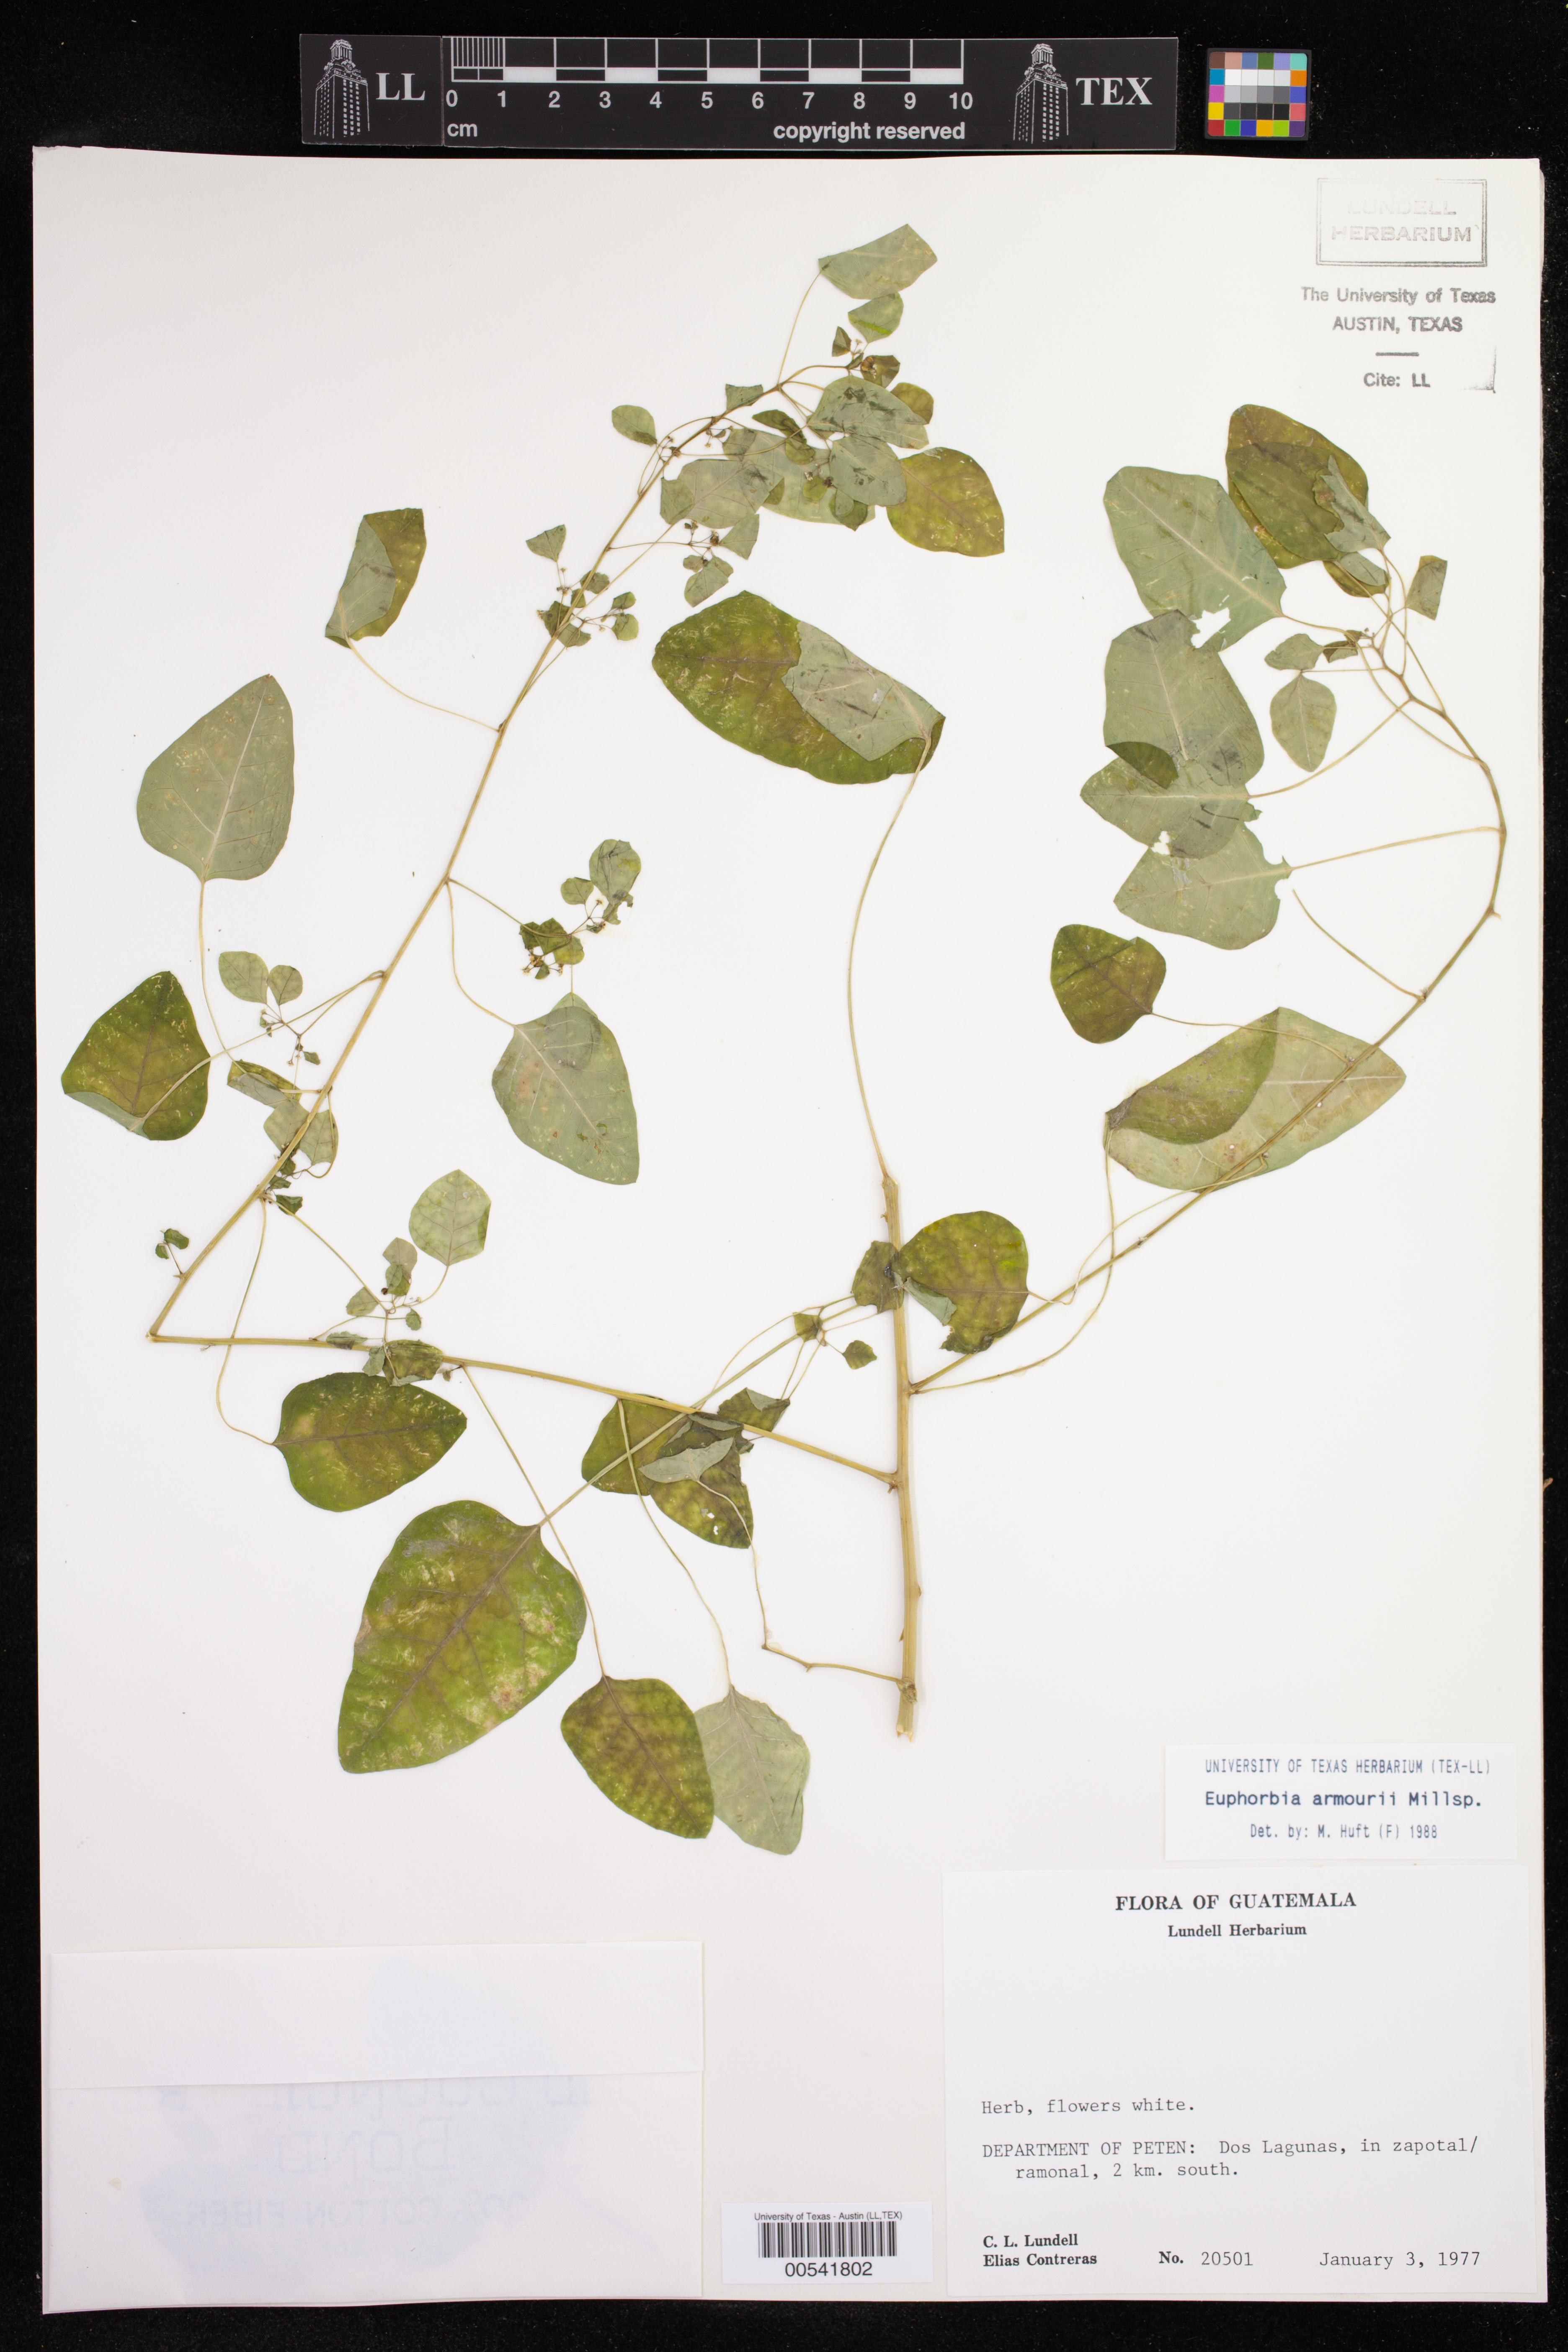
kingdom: Plantae
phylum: Tracheophyta
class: Magnoliopsida
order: Malpighiales
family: Euphorbiaceae
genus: Euphorbia
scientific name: Euphorbia armourii
